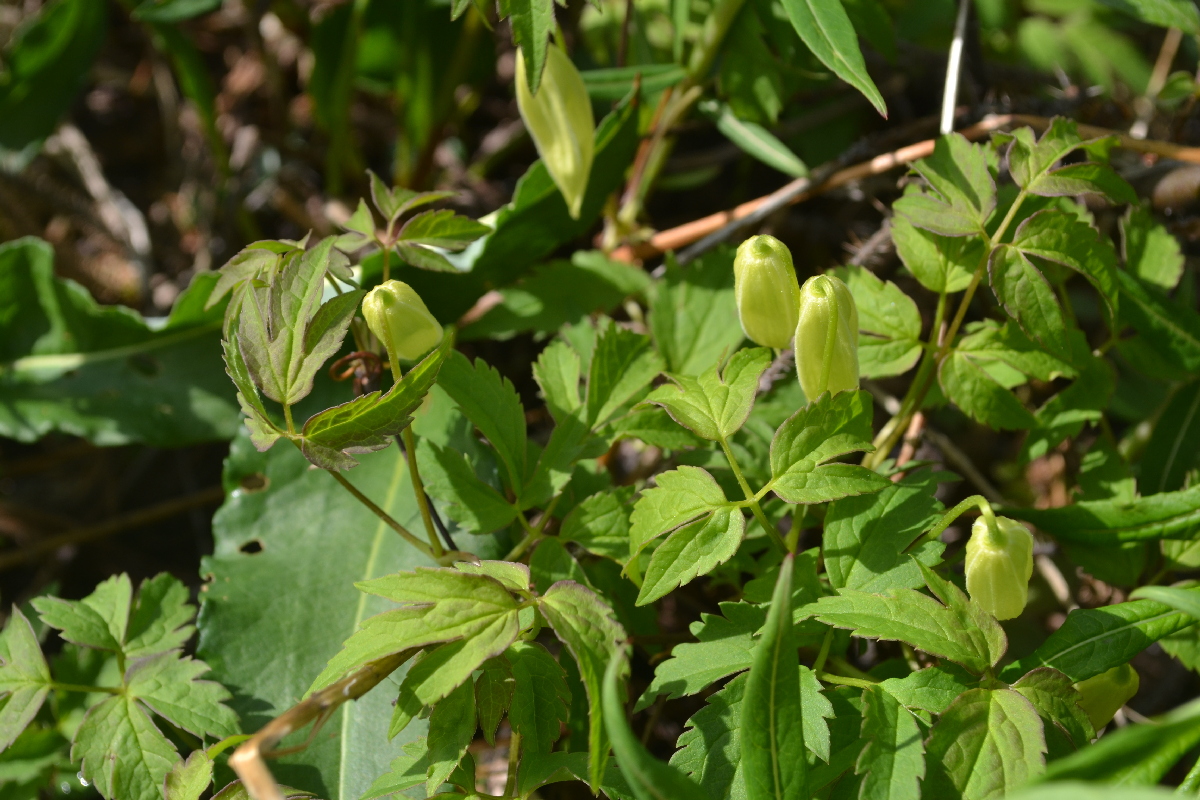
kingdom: Plantae
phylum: Tracheophyta
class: Magnoliopsida
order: Ranunculales
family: Ranunculaceae
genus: Clematis
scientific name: Clematis sibirica
